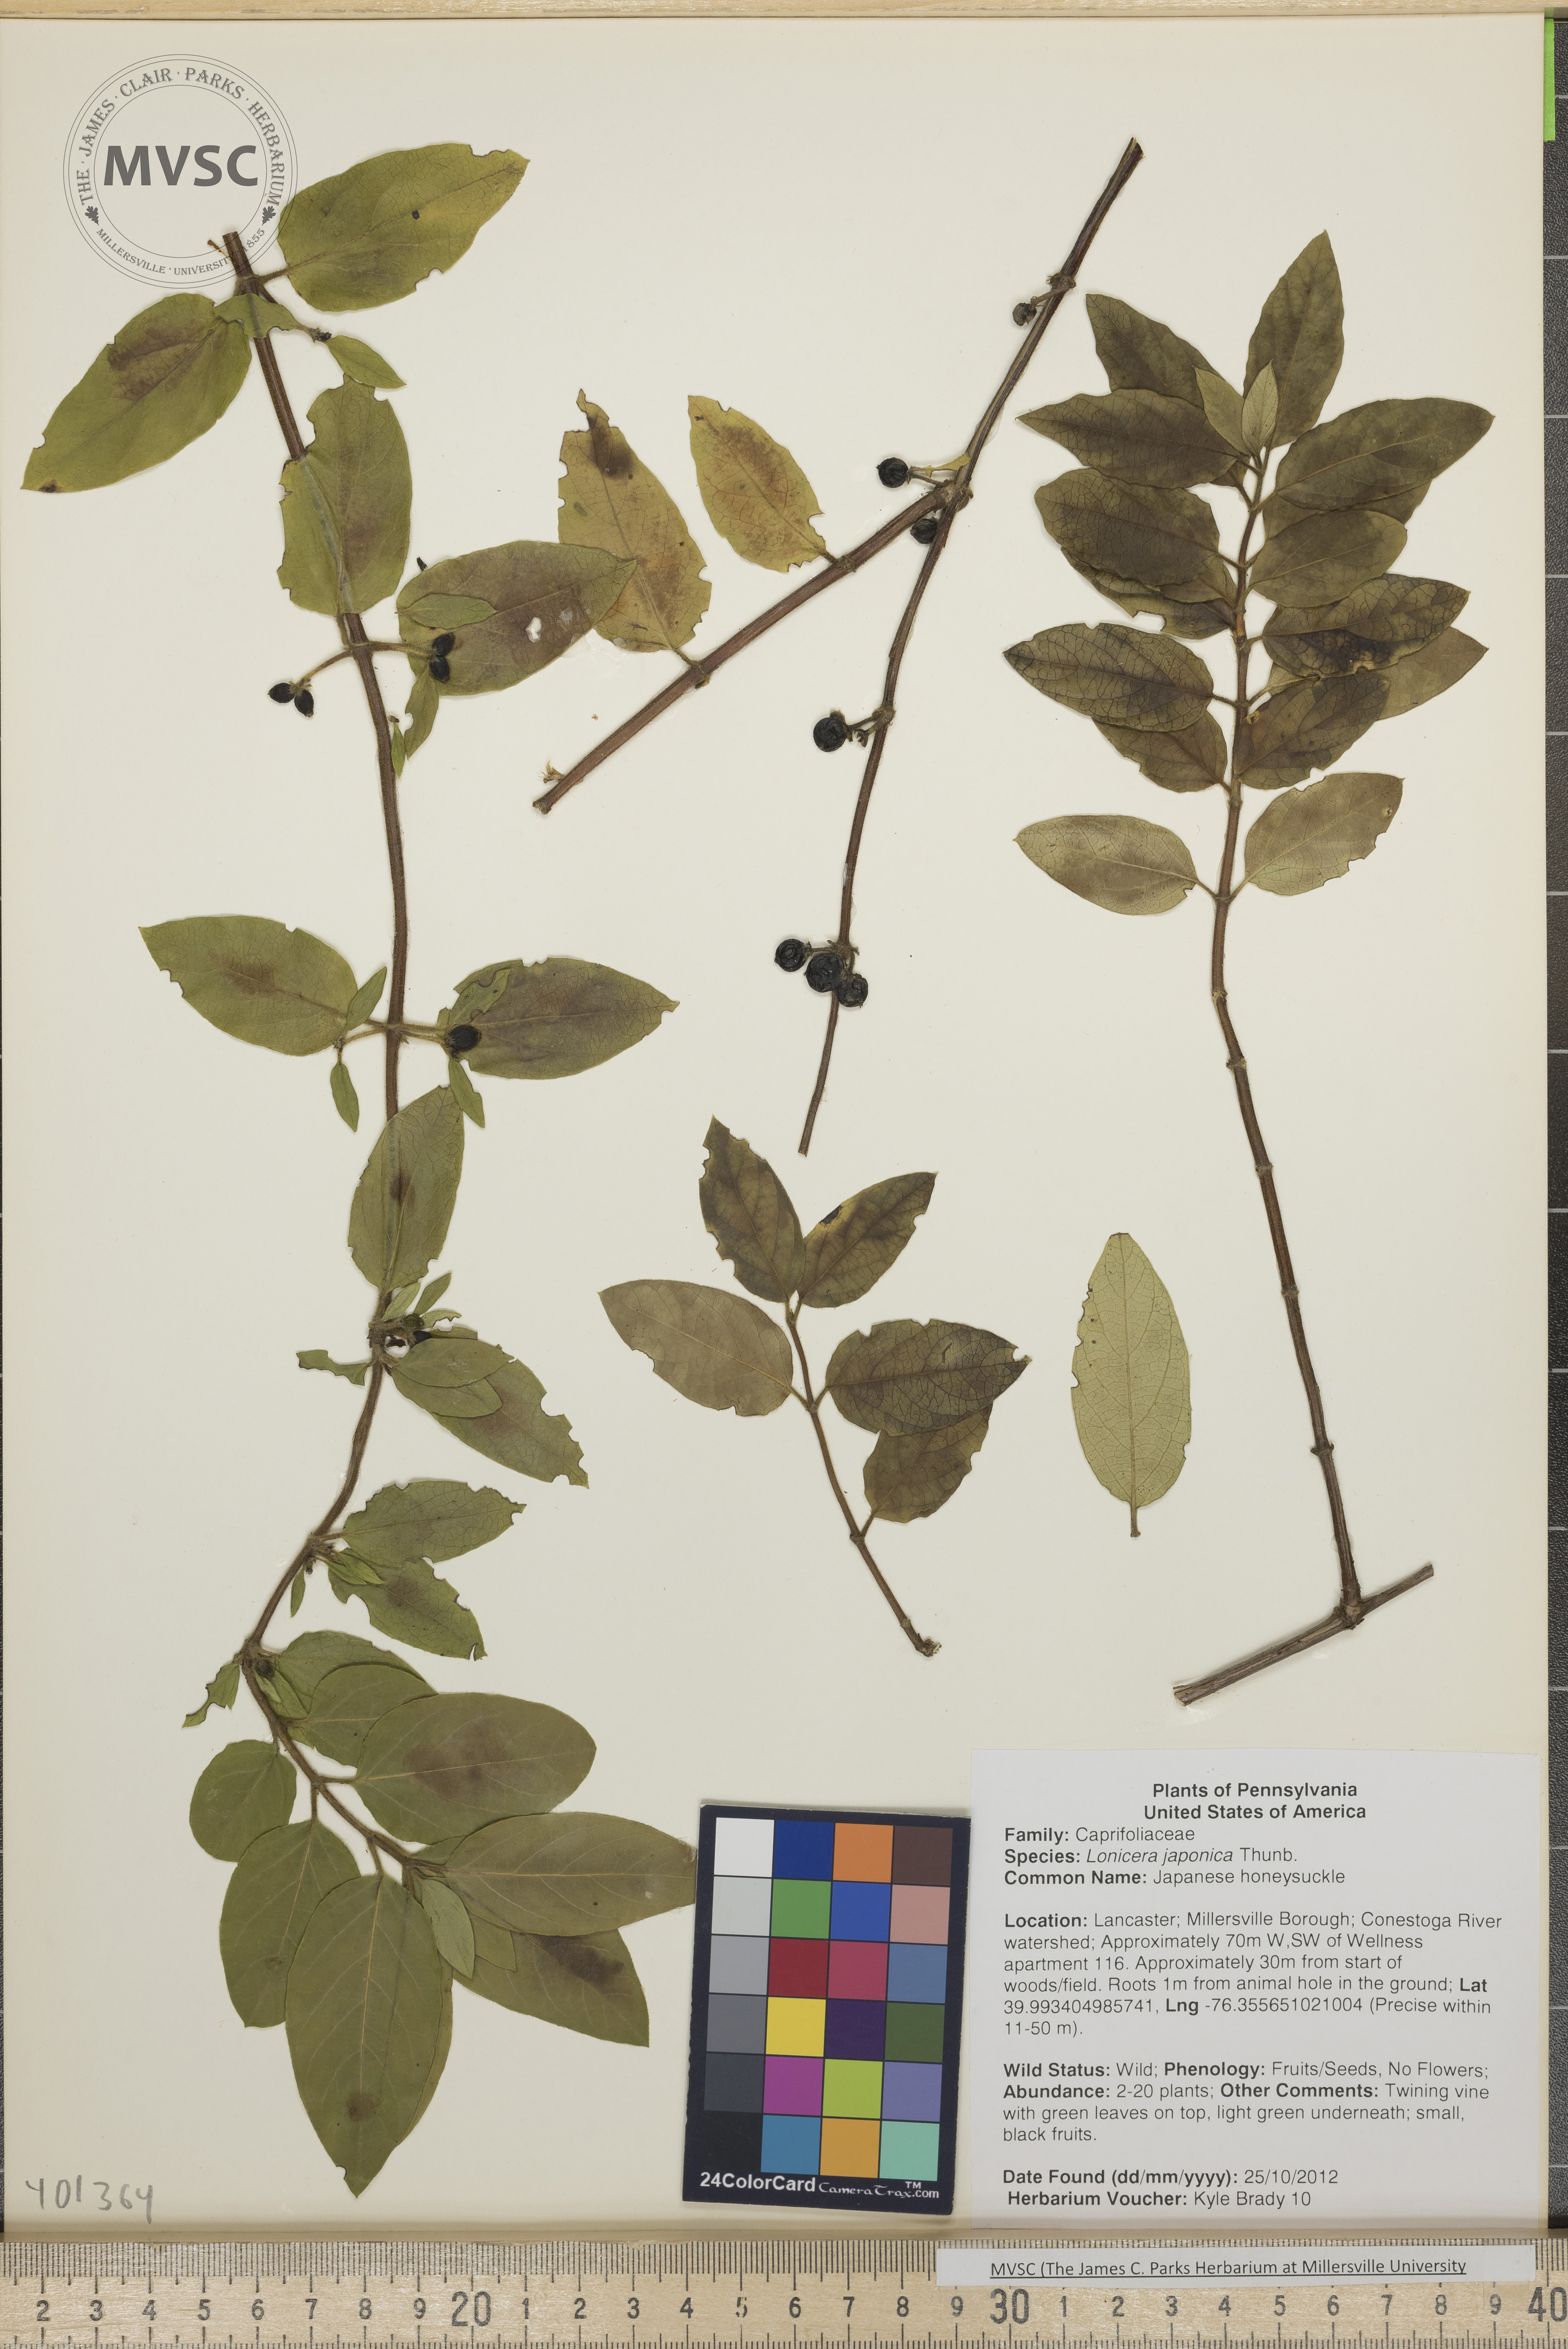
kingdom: Plantae
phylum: Tracheophyta
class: Magnoliopsida
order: Dipsacales
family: Caprifoliaceae
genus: Lonicera
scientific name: Lonicera japonica
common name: Japanese honeysuckle
